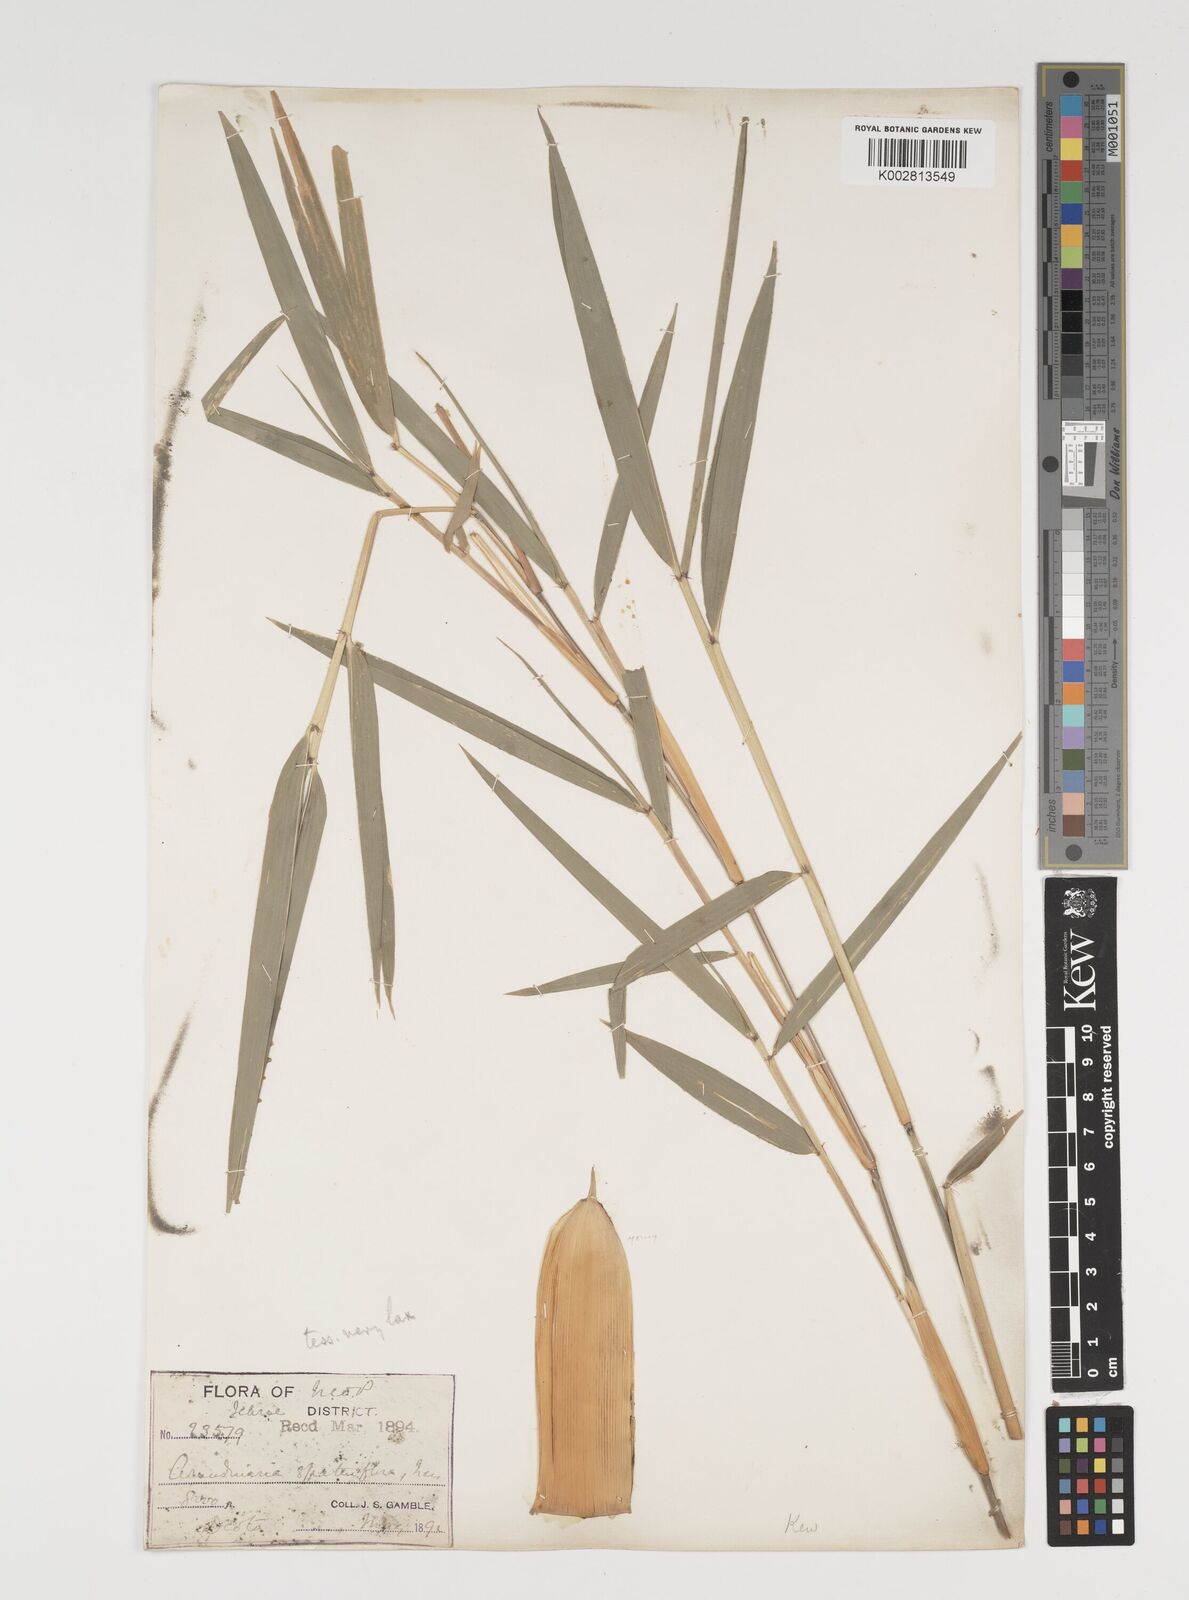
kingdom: Plantae
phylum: Tracheophyta
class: Liliopsida
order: Poales
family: Poaceae
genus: Thamnocalamus
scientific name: Thamnocalamus spathiflorus
